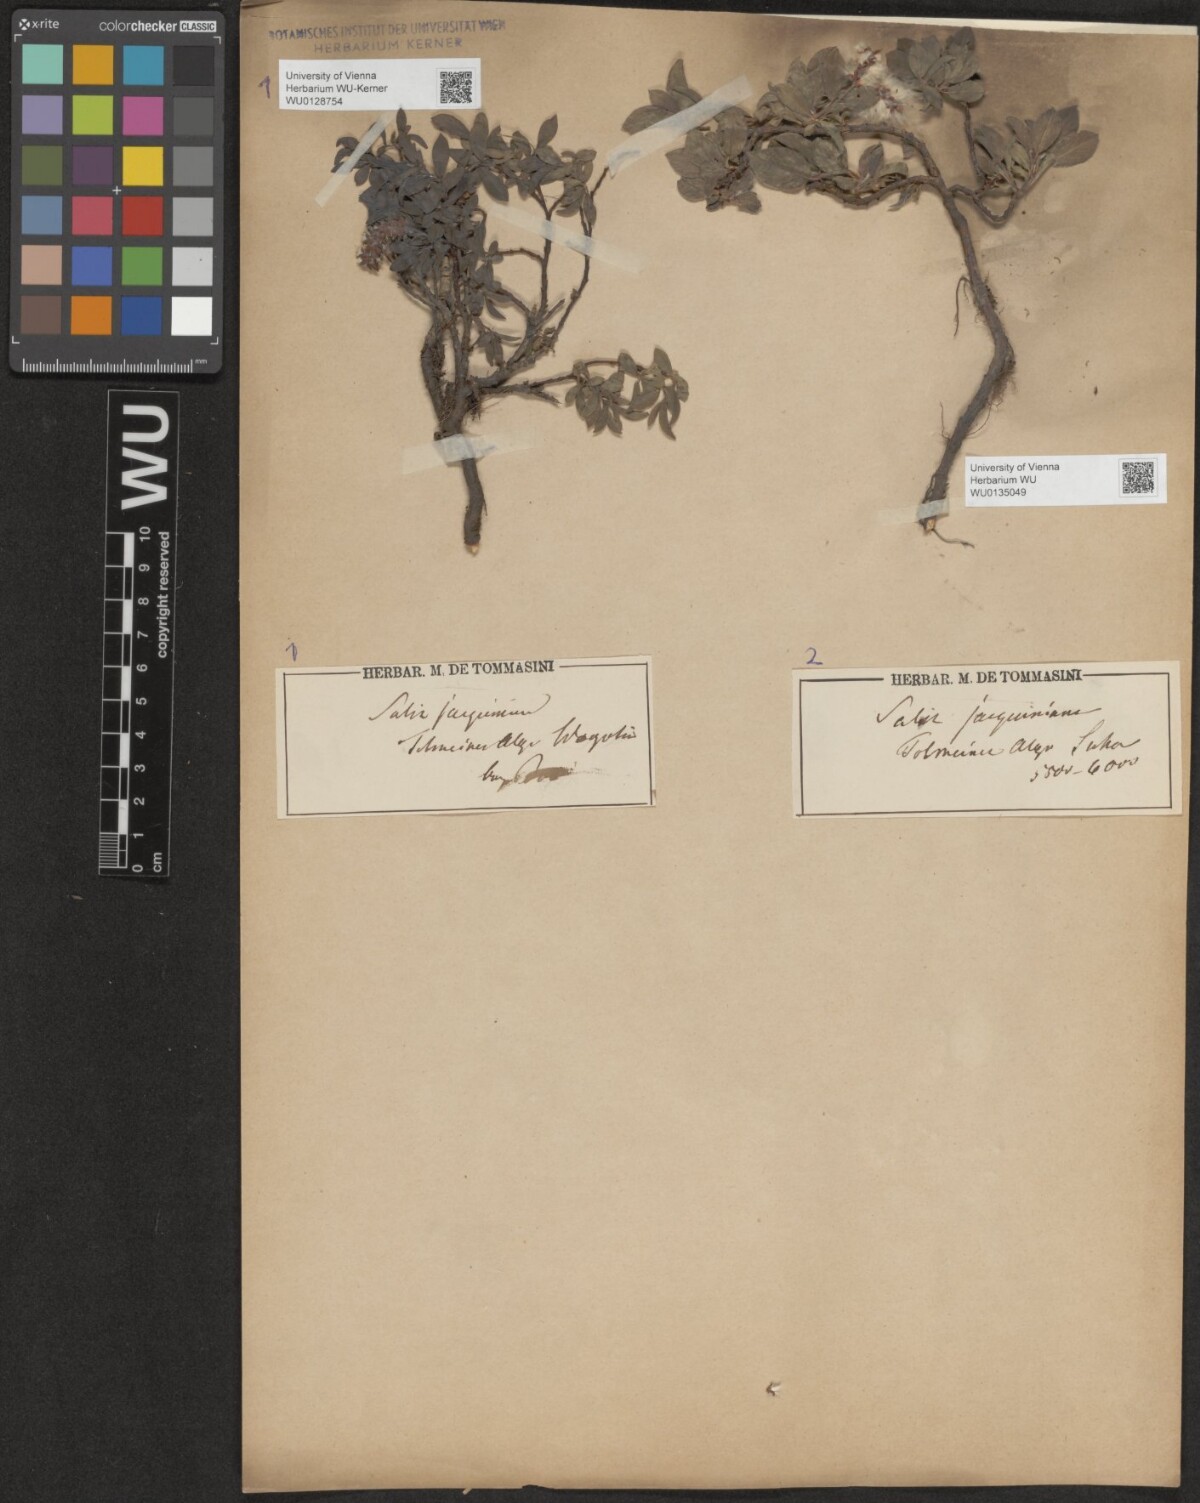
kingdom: Plantae
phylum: Tracheophyta
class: Magnoliopsida
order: Malpighiales
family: Salicaceae
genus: Salix
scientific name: Salix alpina
